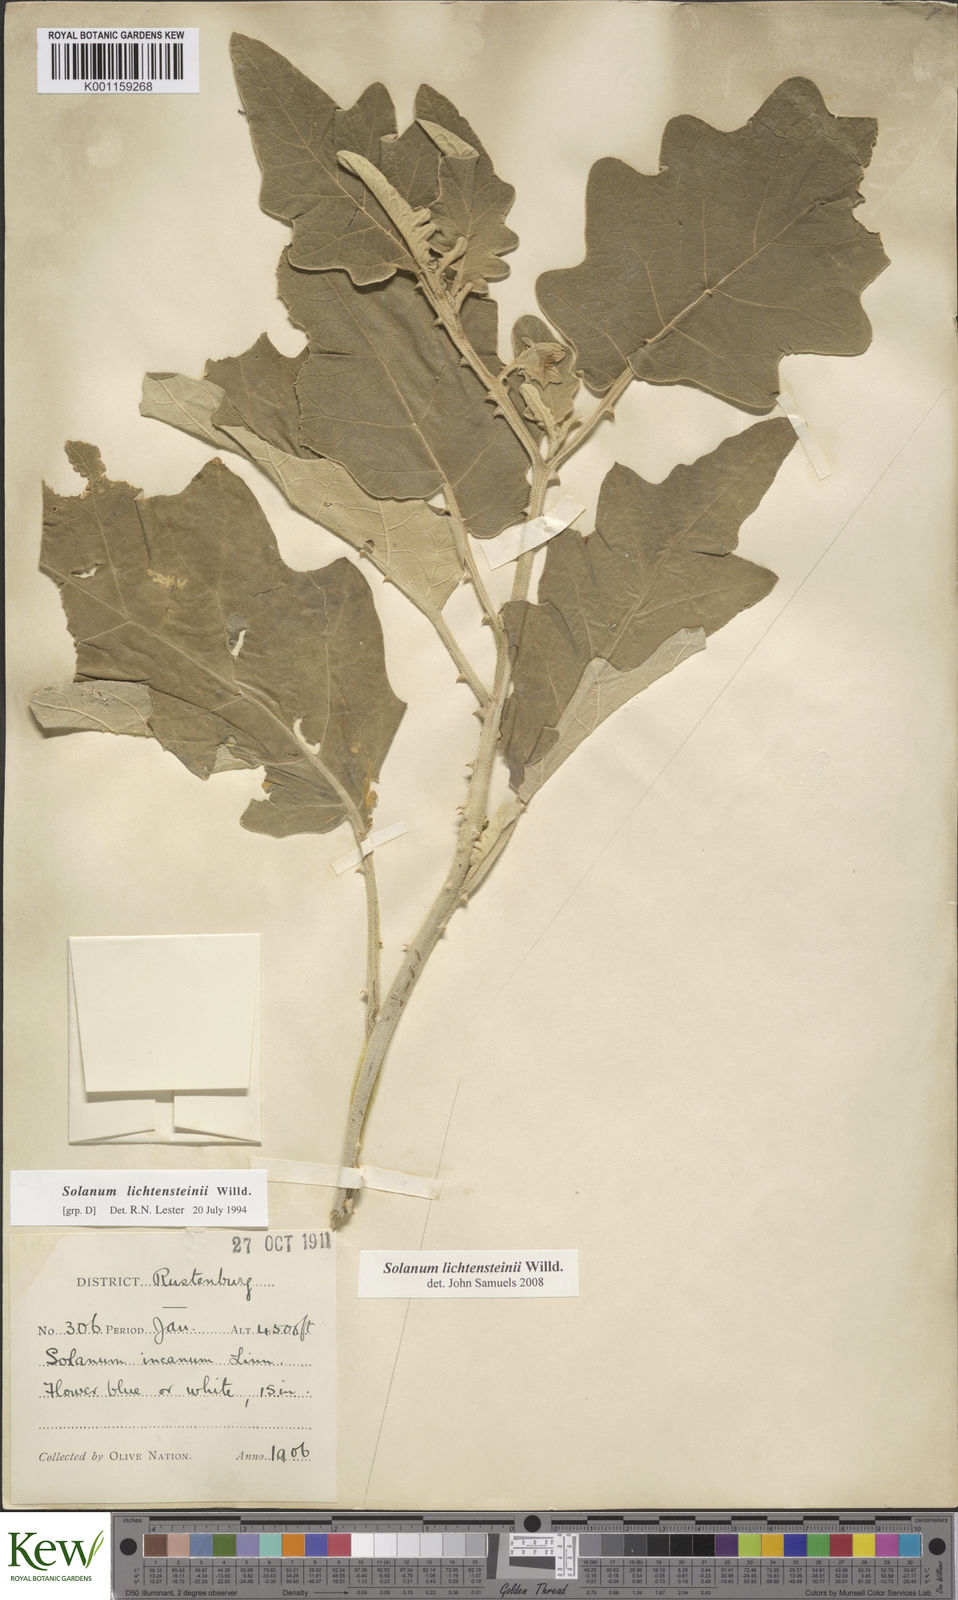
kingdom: Plantae
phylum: Tracheophyta
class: Magnoliopsida
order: Solanales
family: Solanaceae
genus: Solanum
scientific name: Solanum lichtensteinii
